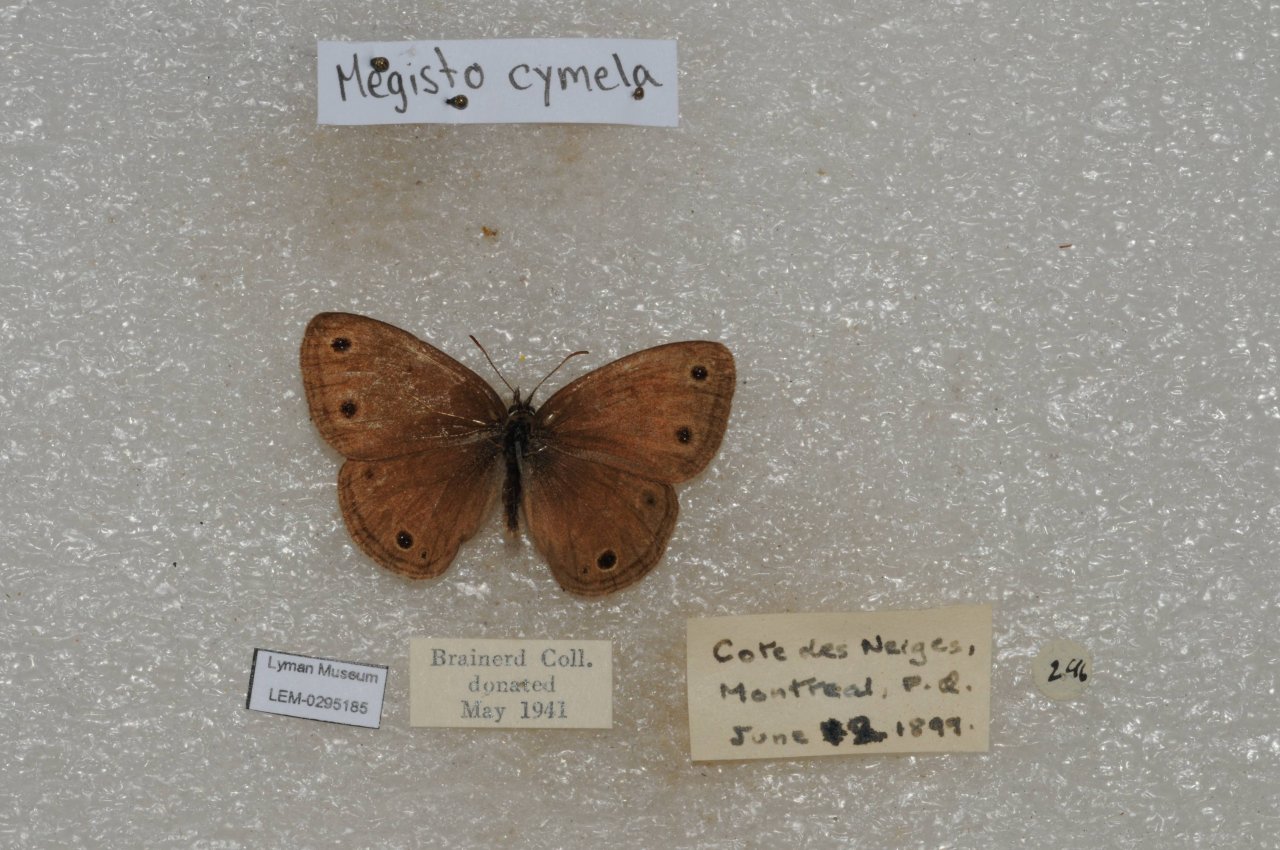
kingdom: Animalia
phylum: Arthropoda
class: Insecta
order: Lepidoptera
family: Nymphalidae
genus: Euptychia
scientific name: Euptychia cymela
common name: Little Wood Satyr
